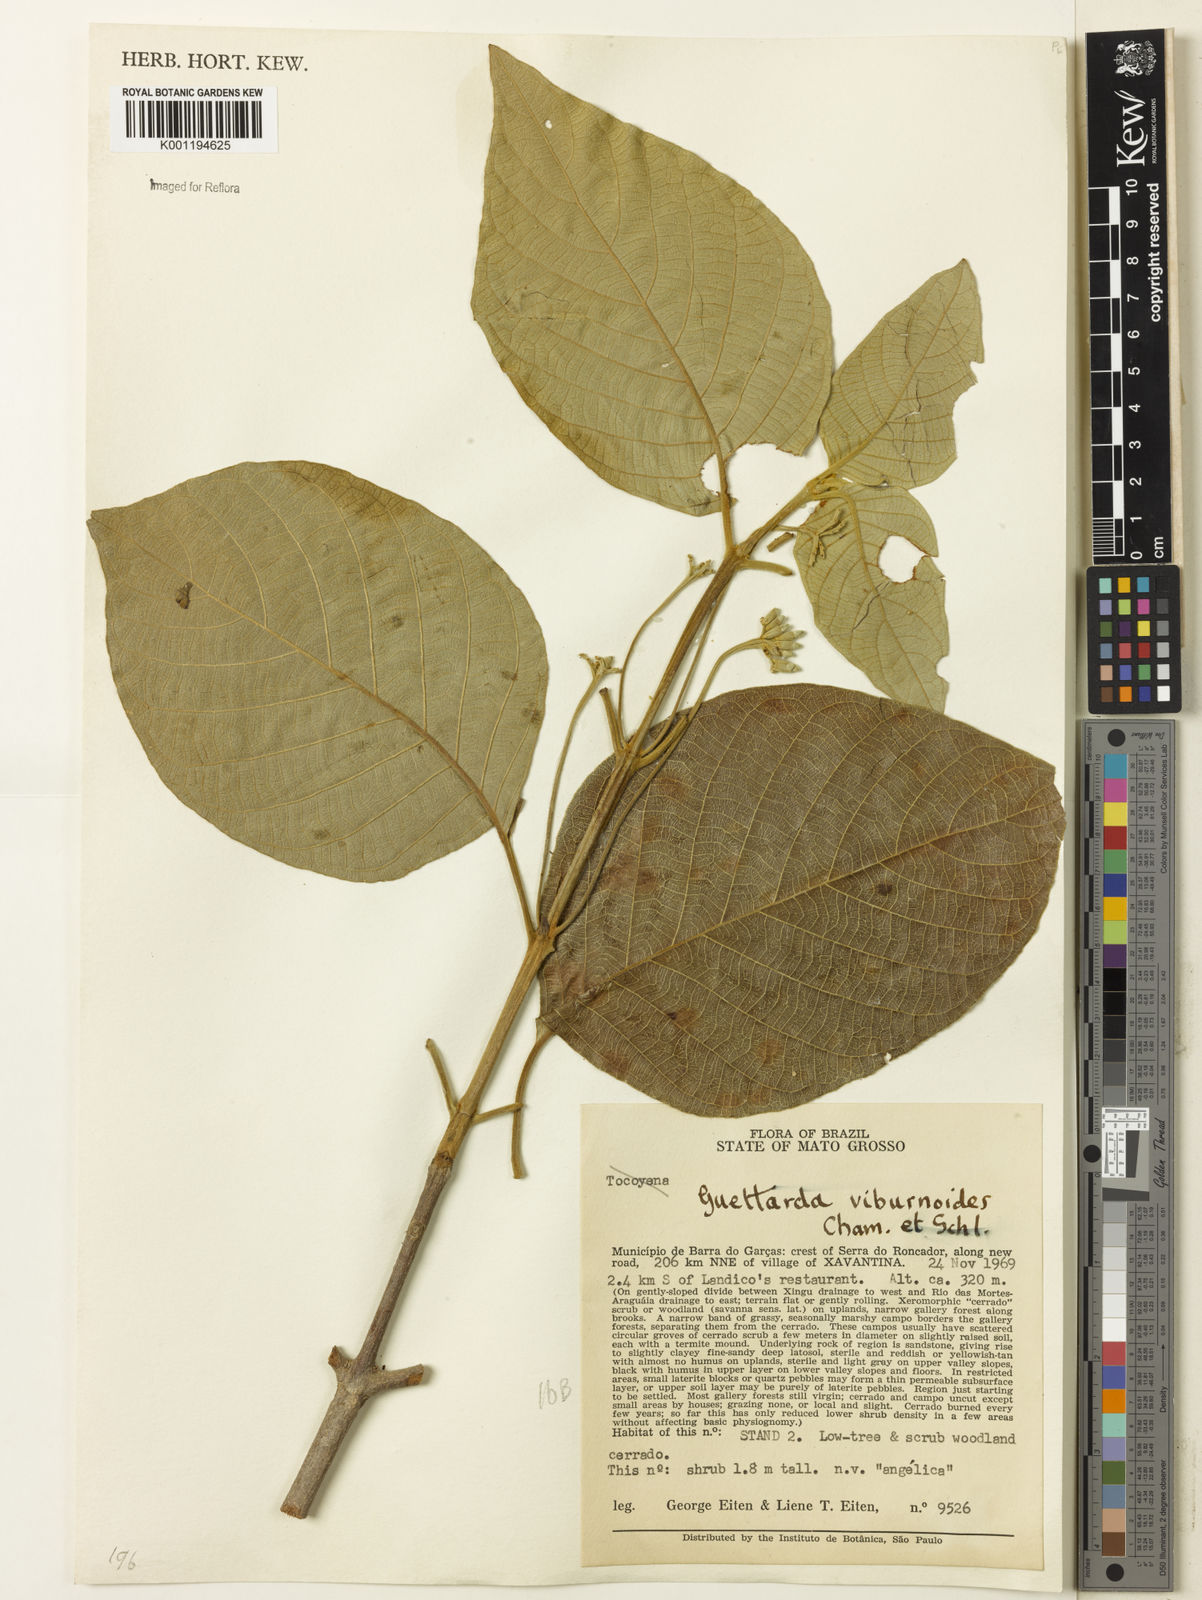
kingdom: Plantae
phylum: Tracheophyta
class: Magnoliopsida
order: Gentianales
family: Rubiaceae
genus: Guettarda
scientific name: Guettarda viburnoides
